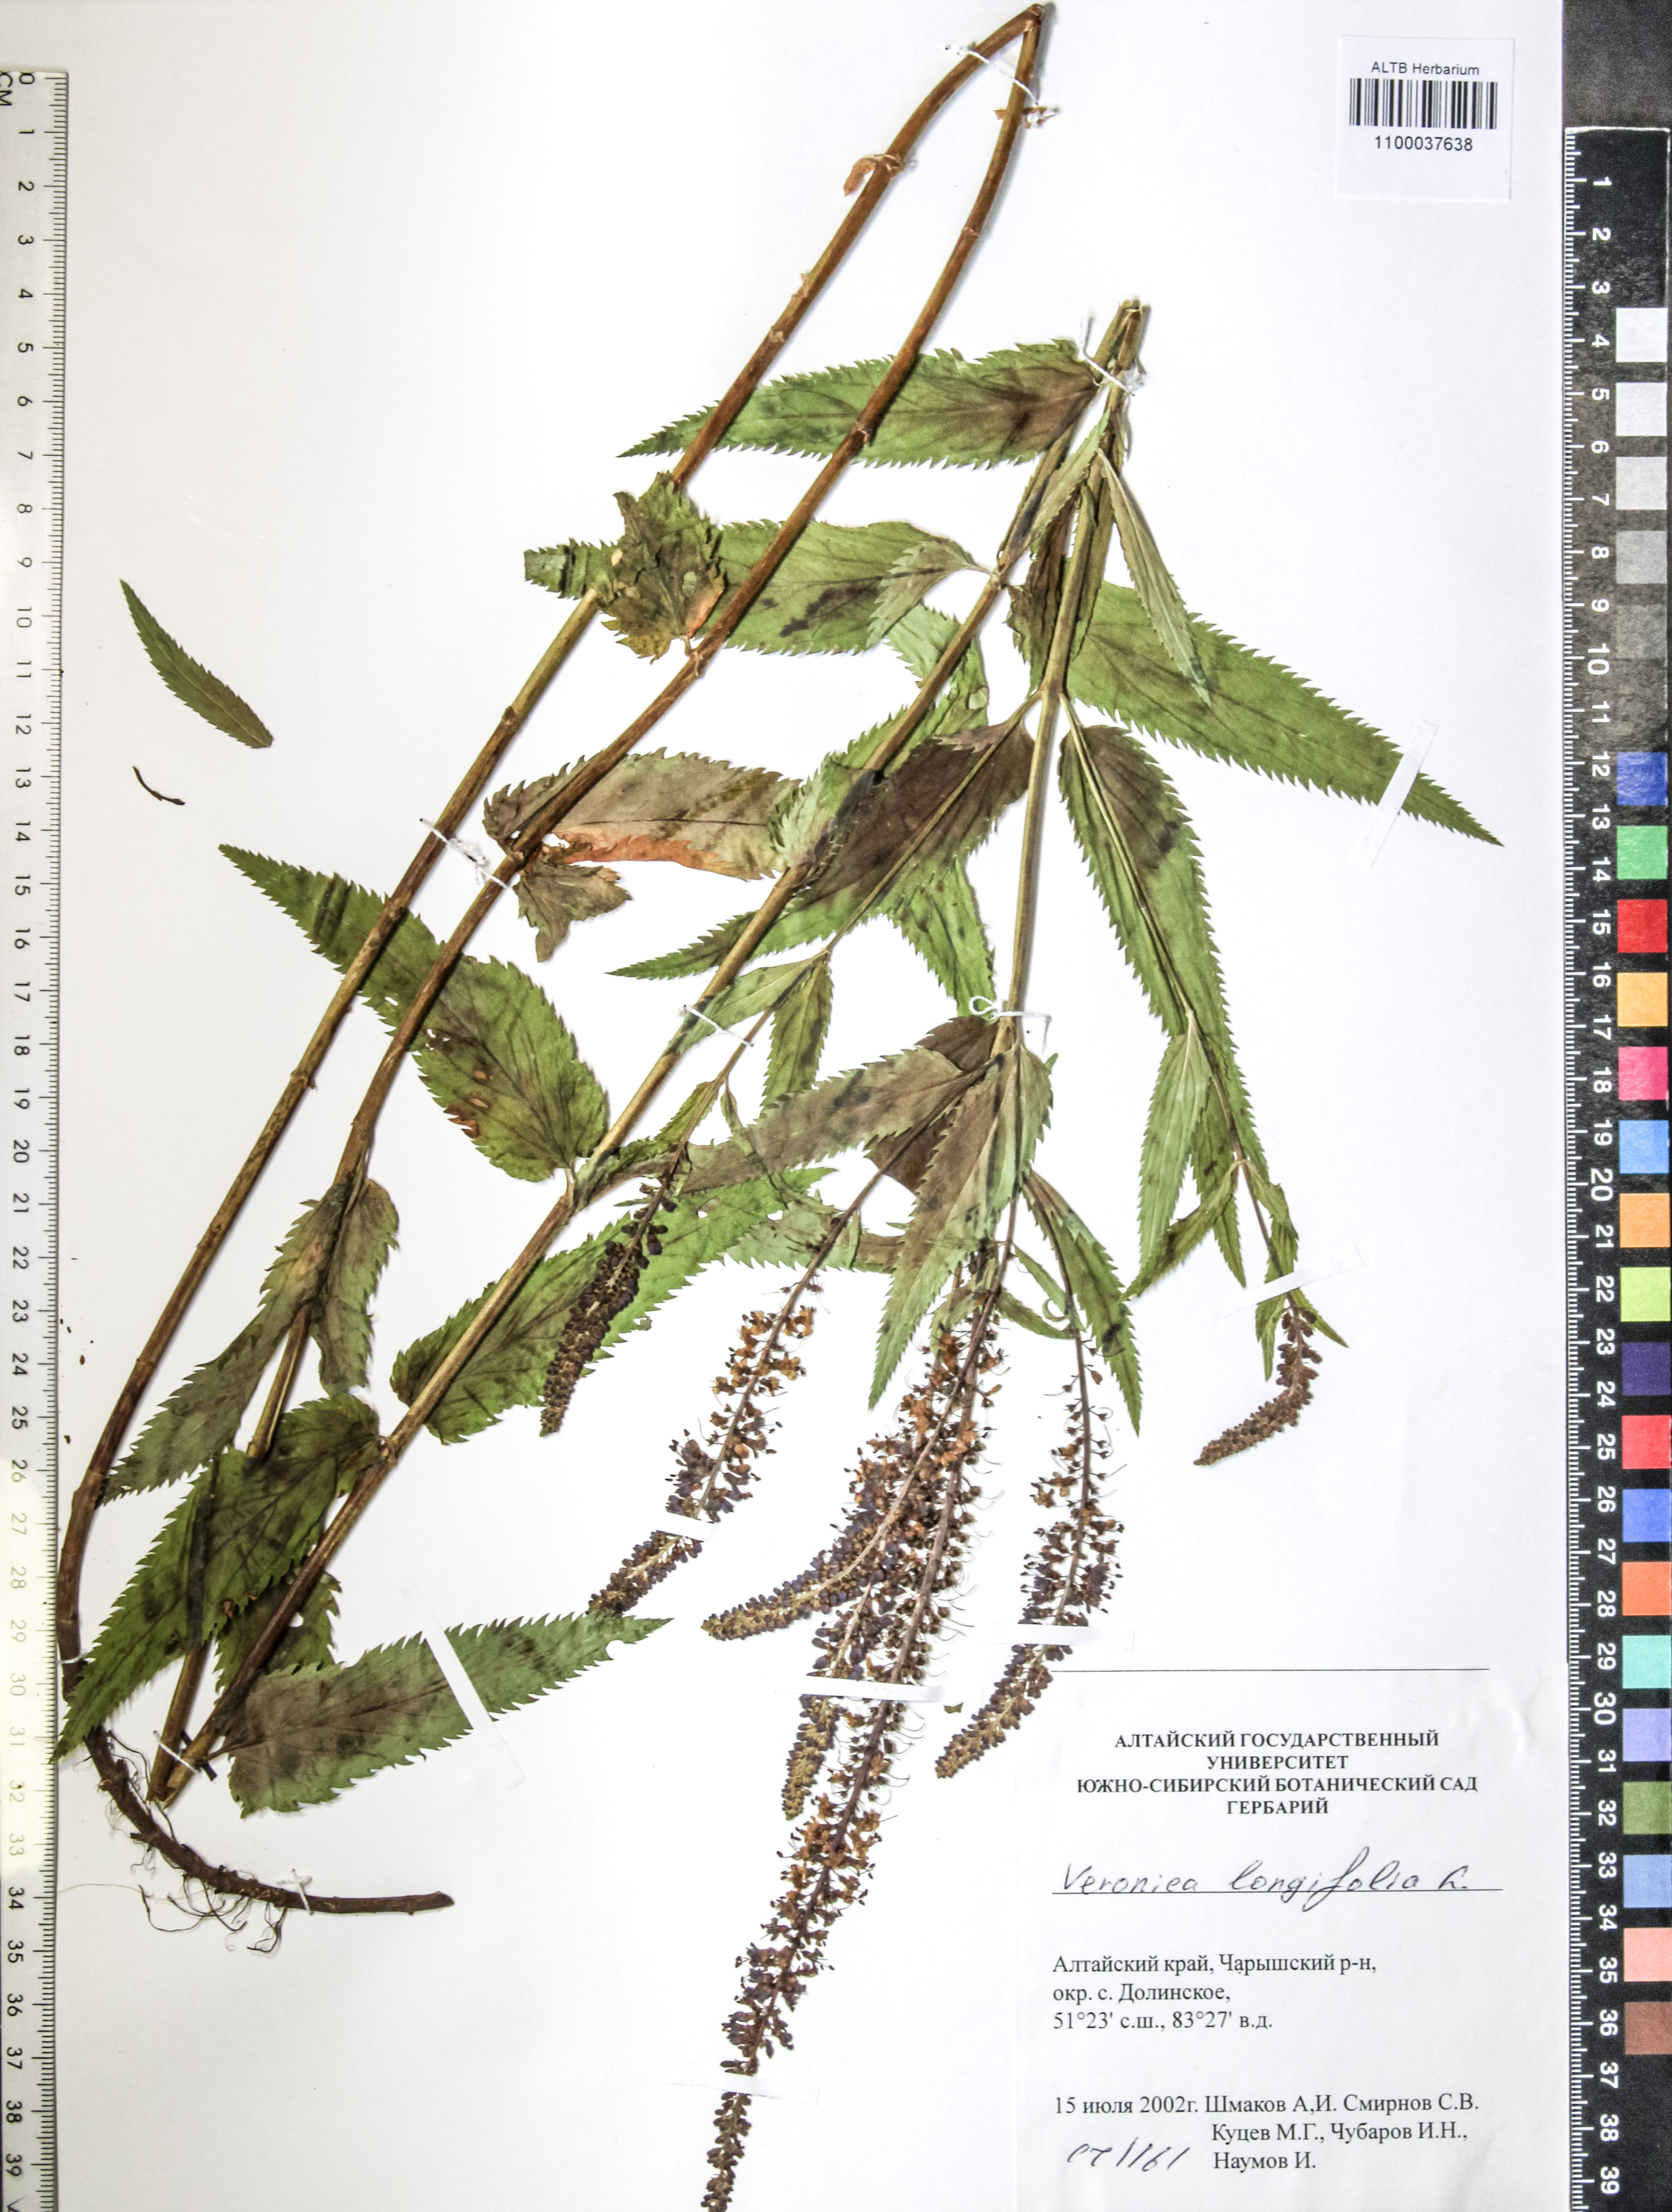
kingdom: Plantae
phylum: Tracheophyta
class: Magnoliopsida
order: Lamiales
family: Plantaginaceae
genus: Veronica
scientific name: Veronica longifolia
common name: Garden speedwell
